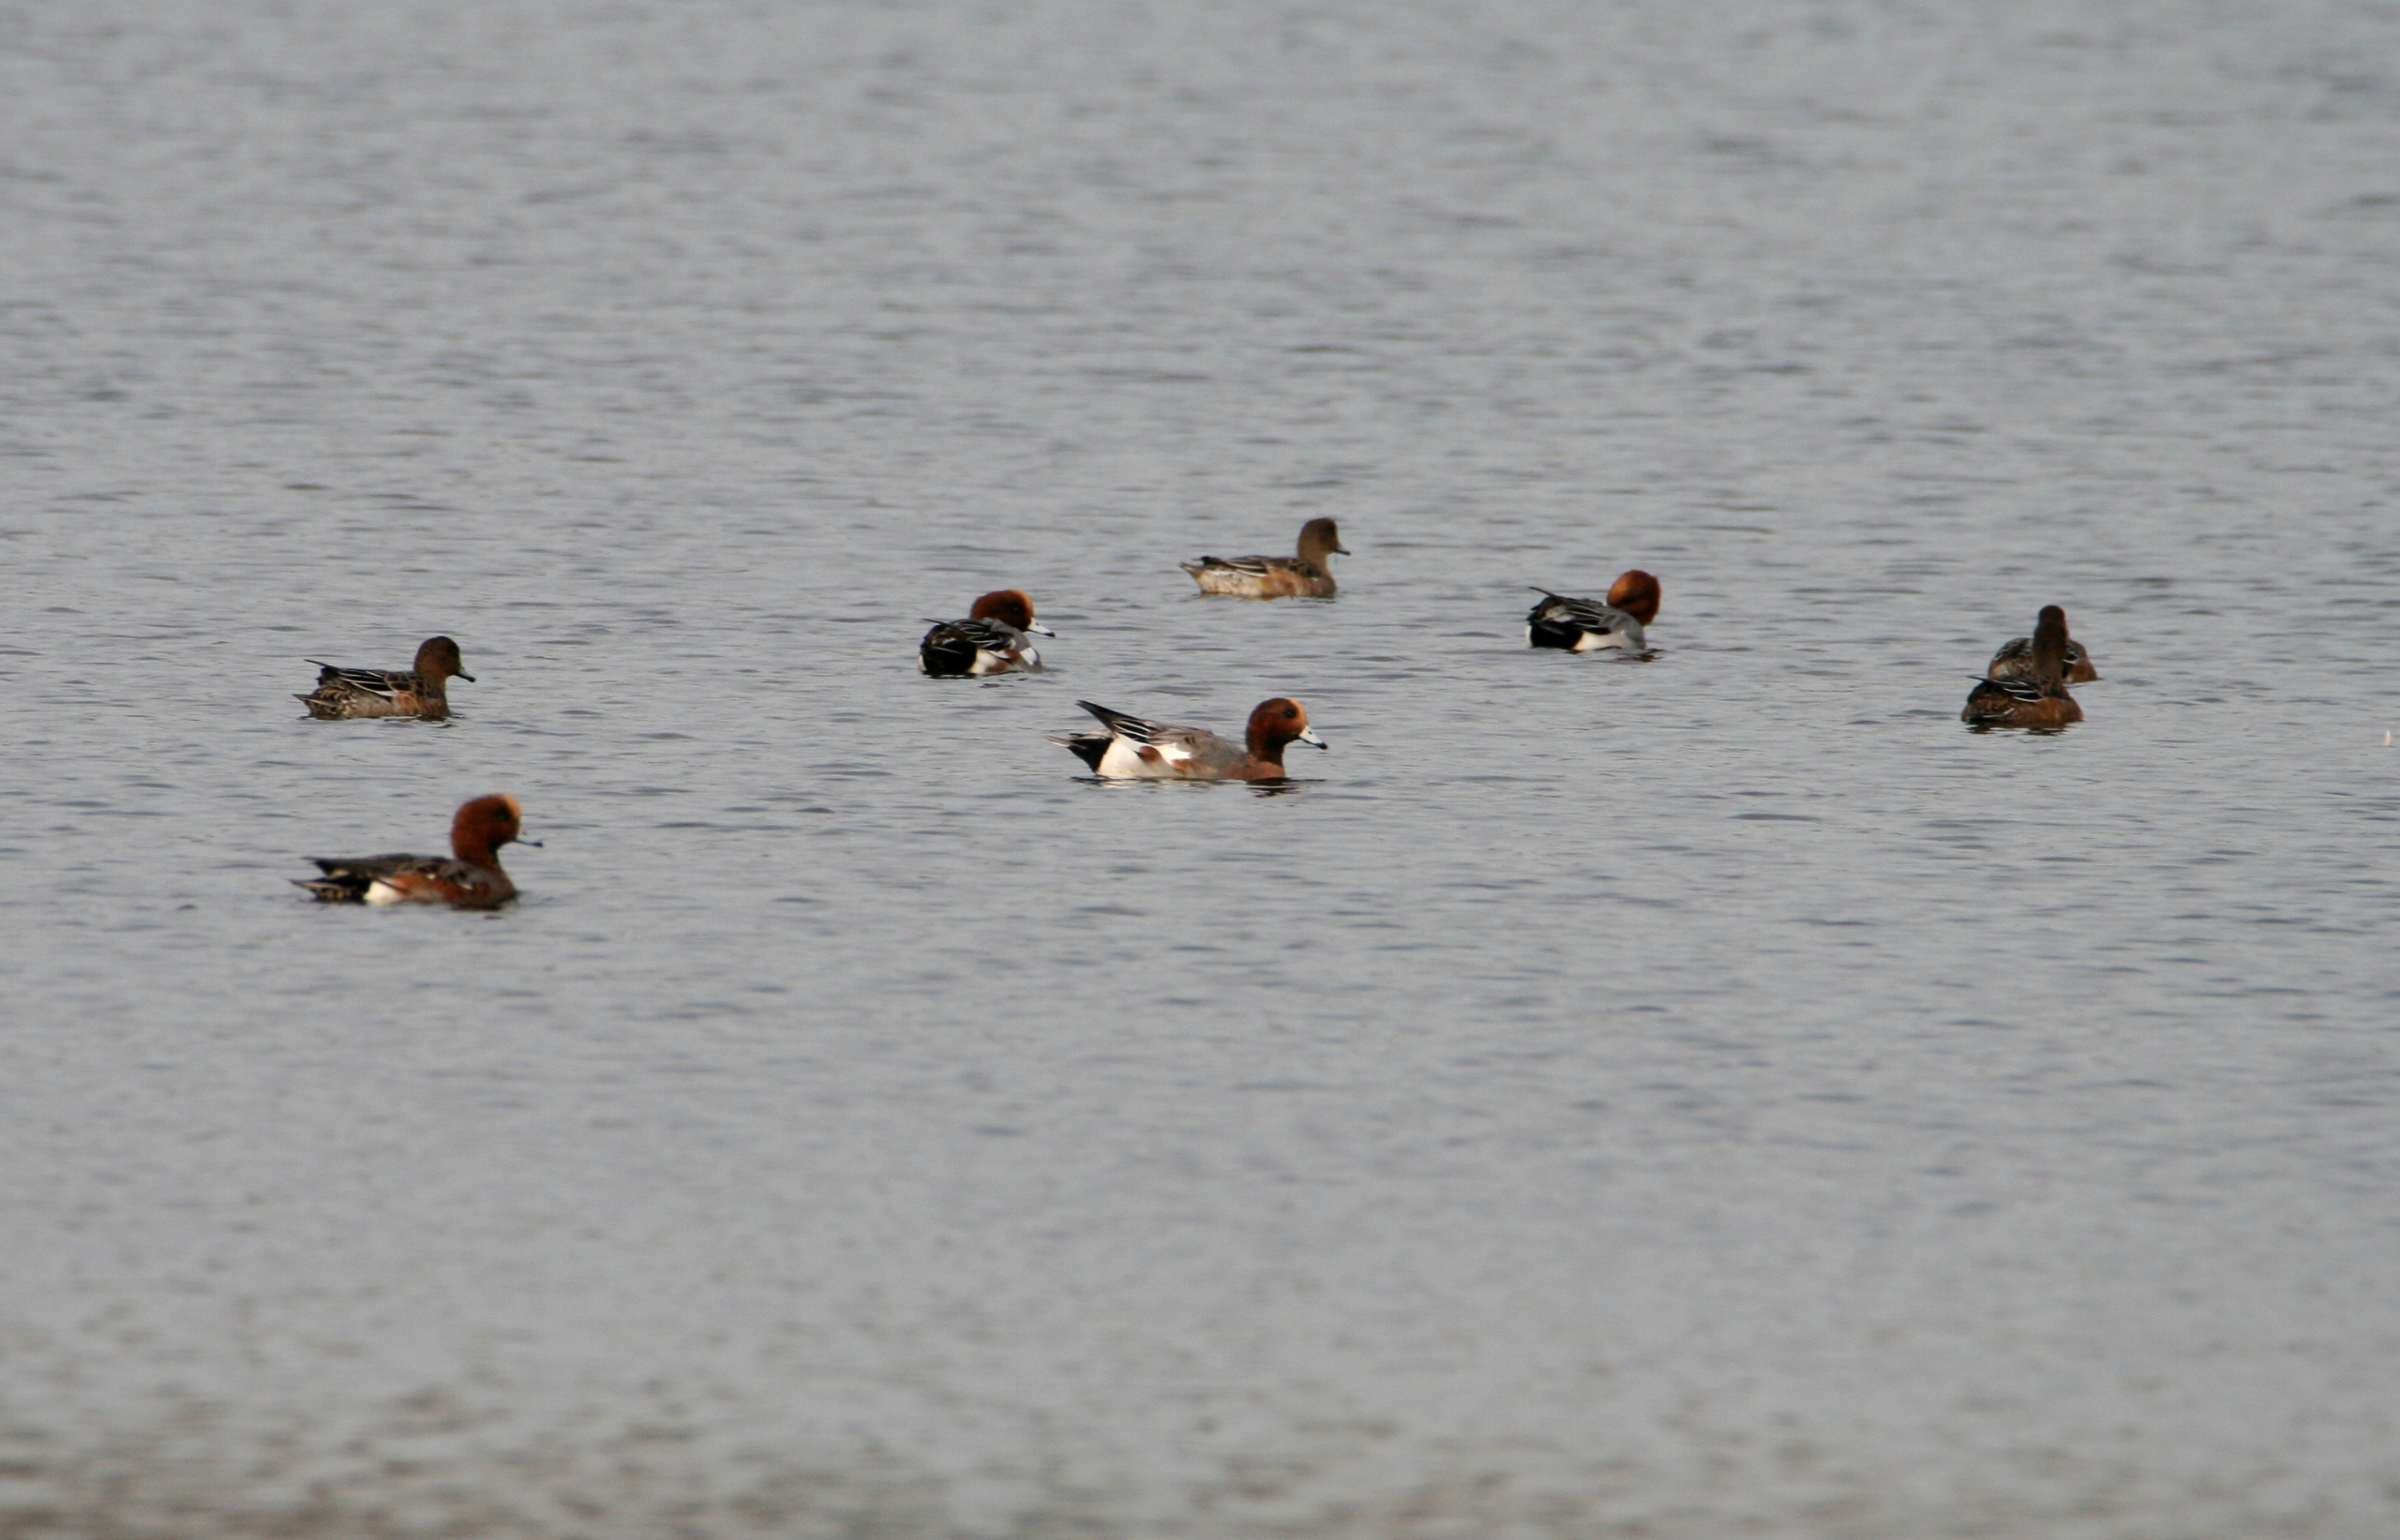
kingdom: Animalia
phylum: Chordata
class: Aves
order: Anseriformes
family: Anatidae
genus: Mareca
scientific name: Mareca penelope
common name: Pibeand
